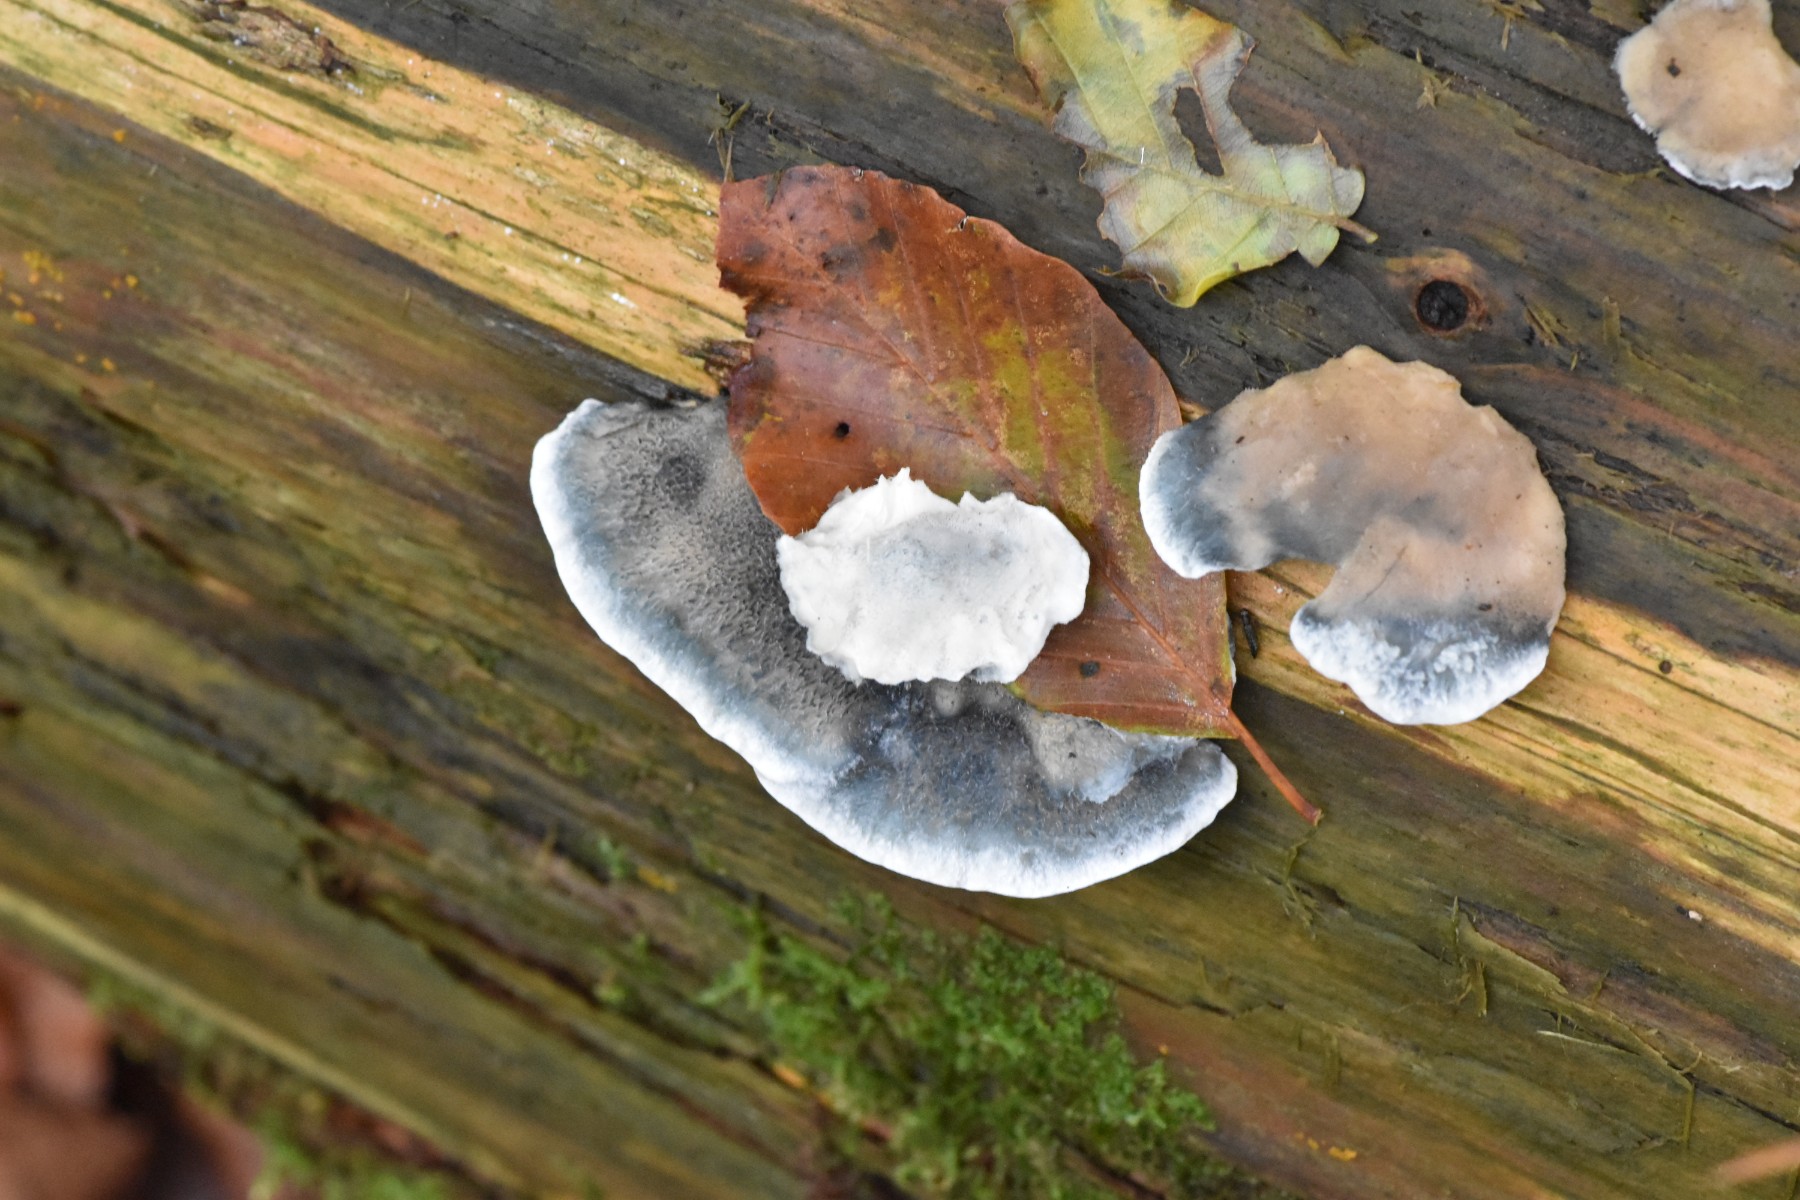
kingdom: Fungi
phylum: Basidiomycota
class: Agaricomycetes
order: Polyporales
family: Polyporaceae
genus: Cyanosporus
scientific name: Cyanosporus caesius
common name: blålig kødporesvamp
